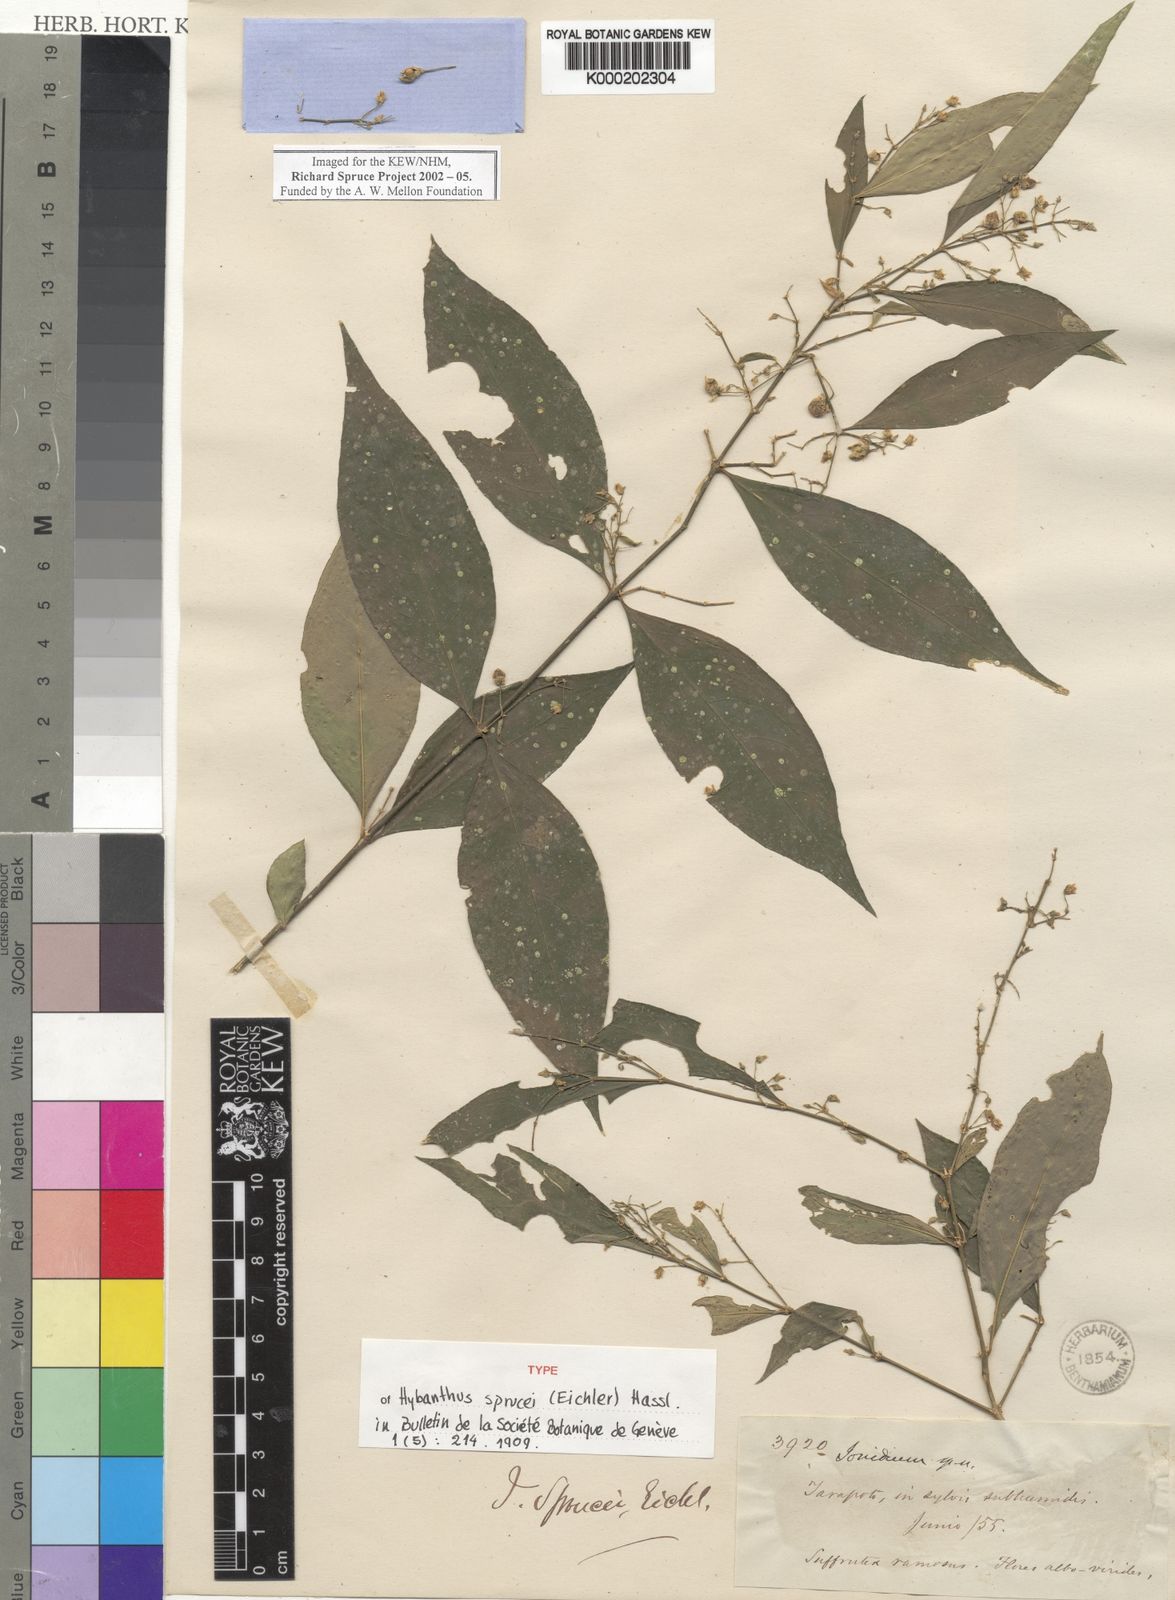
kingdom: Plantae
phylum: Tracheophyta
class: Magnoliopsida
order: Malpighiales
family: Violaceae
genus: Pombalia
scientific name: Pombalia sprucei
